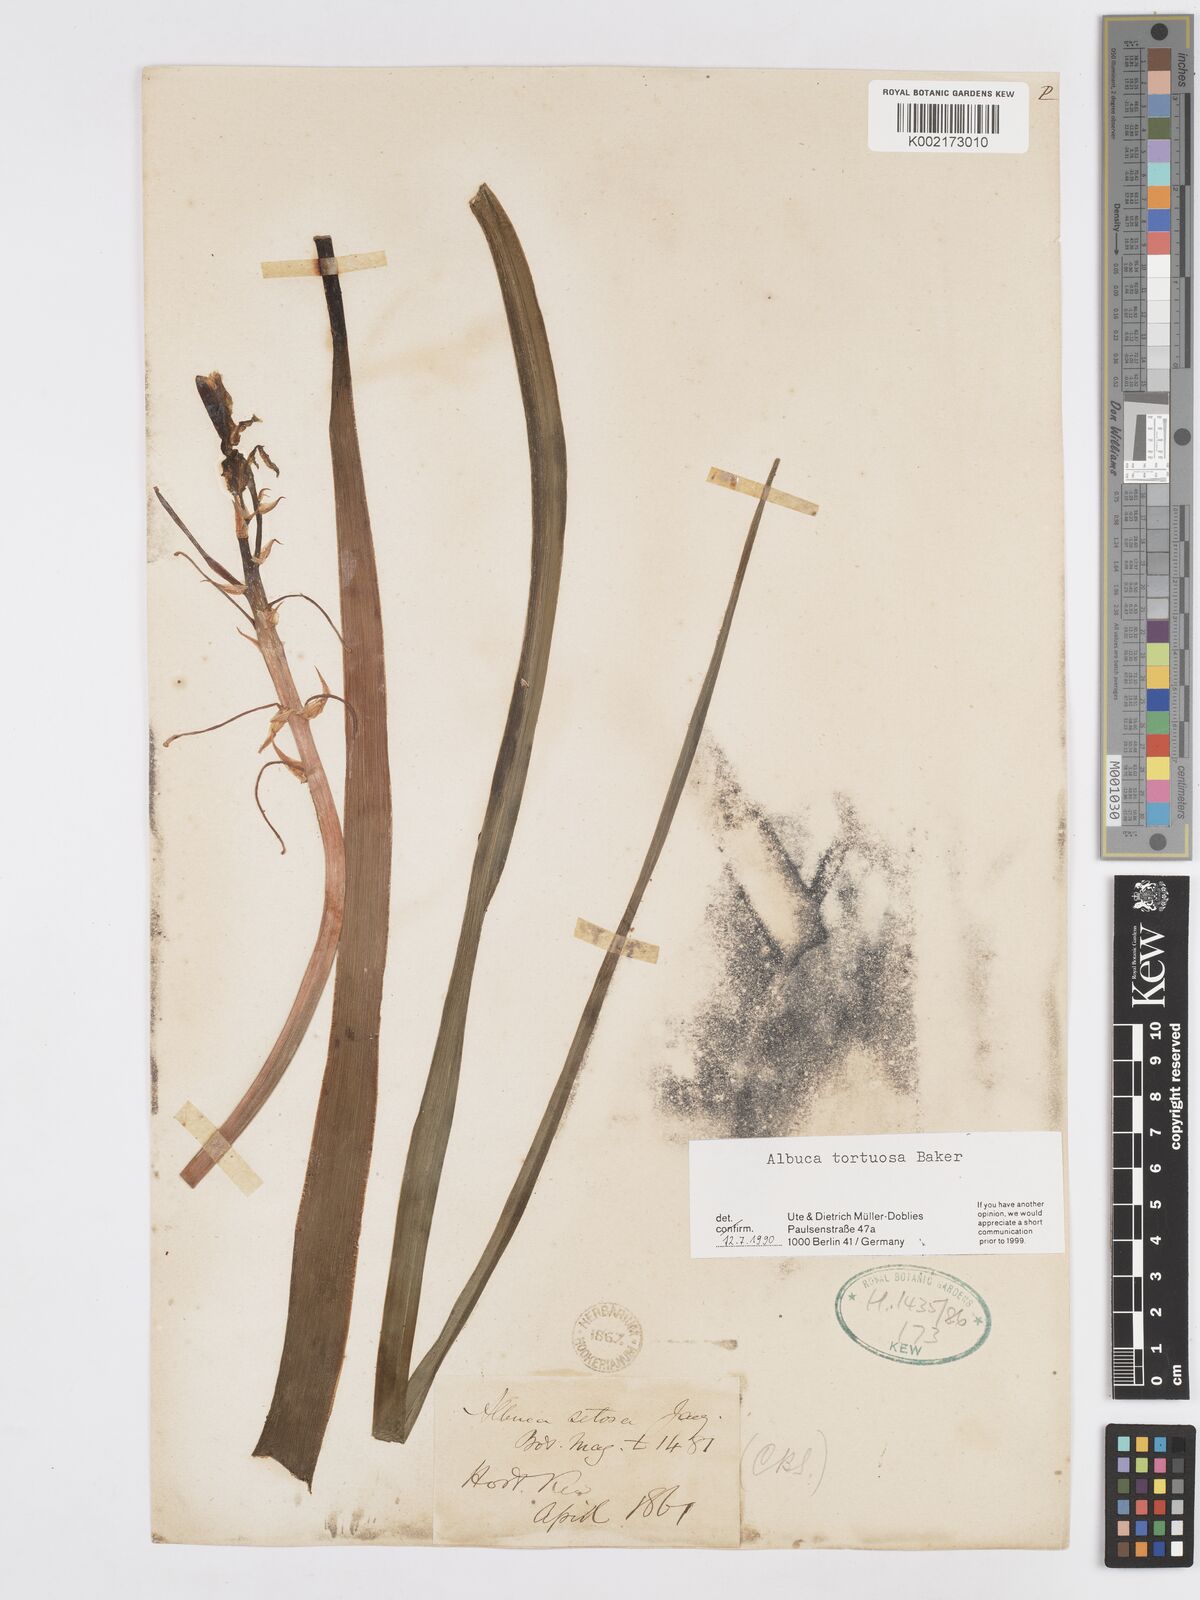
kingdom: Plantae
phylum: Tracheophyta
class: Liliopsida
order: Asparagales
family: Asparagaceae
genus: Albuca
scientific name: Albuca tortuosa
